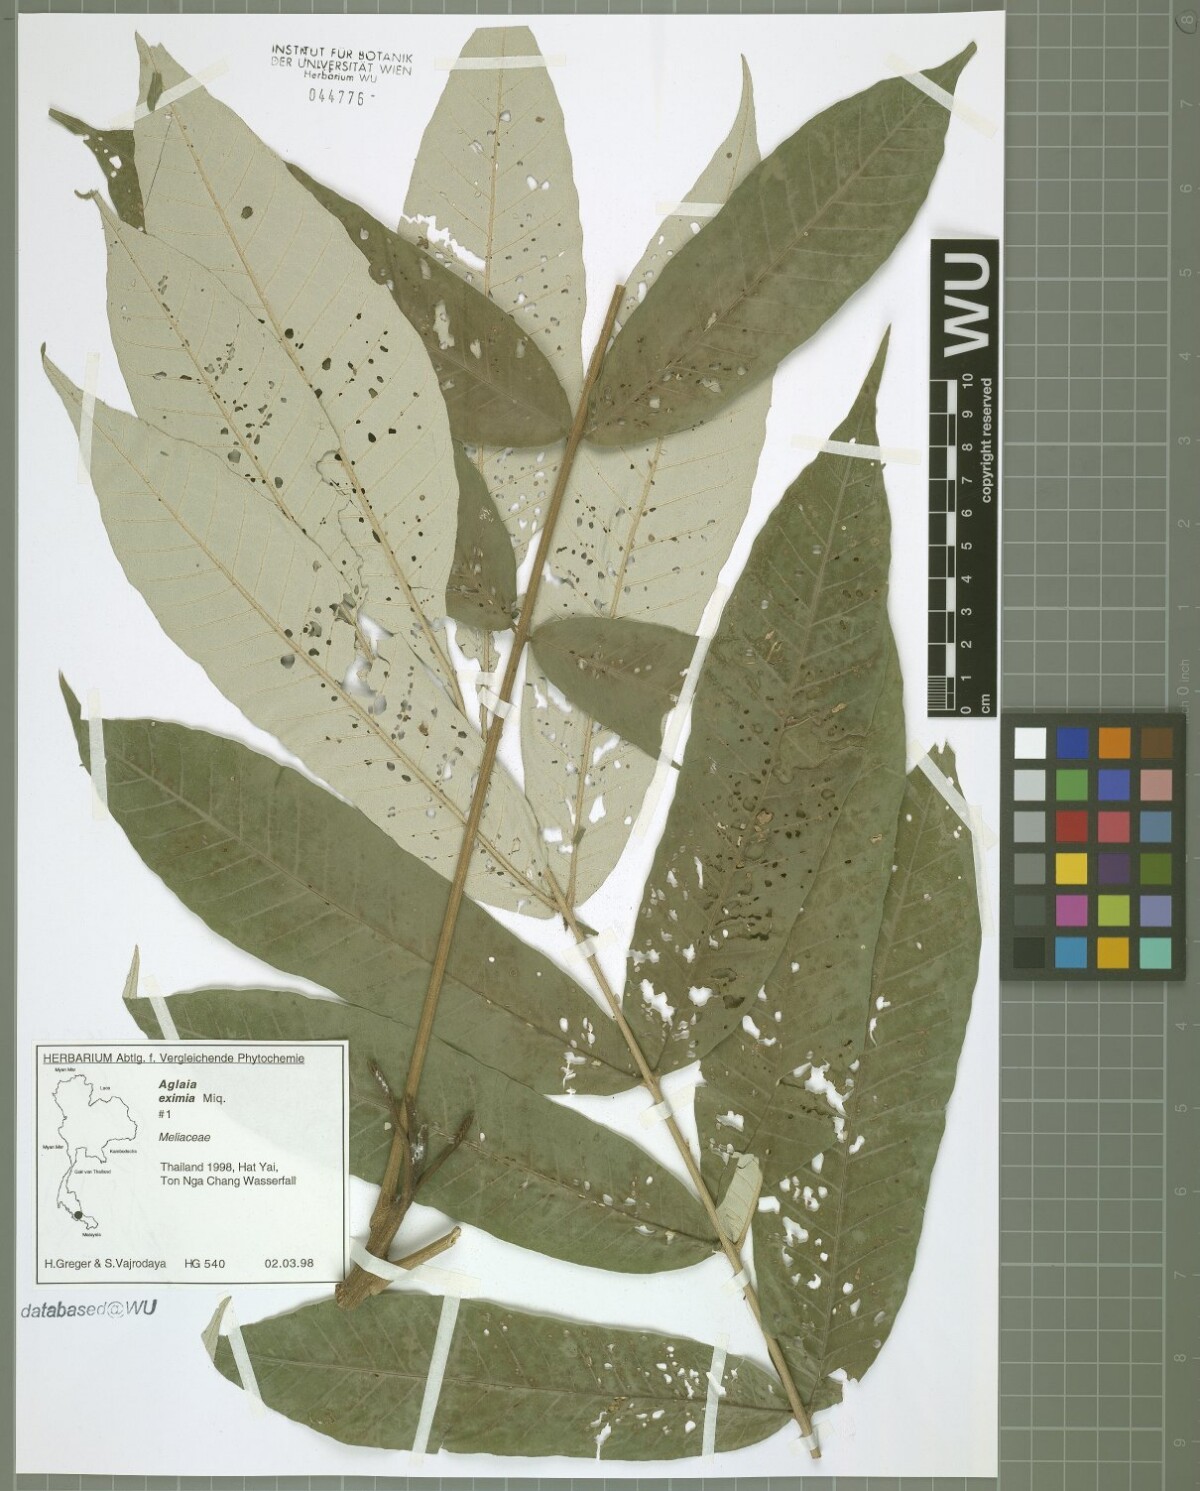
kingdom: Plantae
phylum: Tracheophyta
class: Magnoliopsida
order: Sapindales
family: Meliaceae
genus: Aglaia
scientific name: Aglaia eximia
